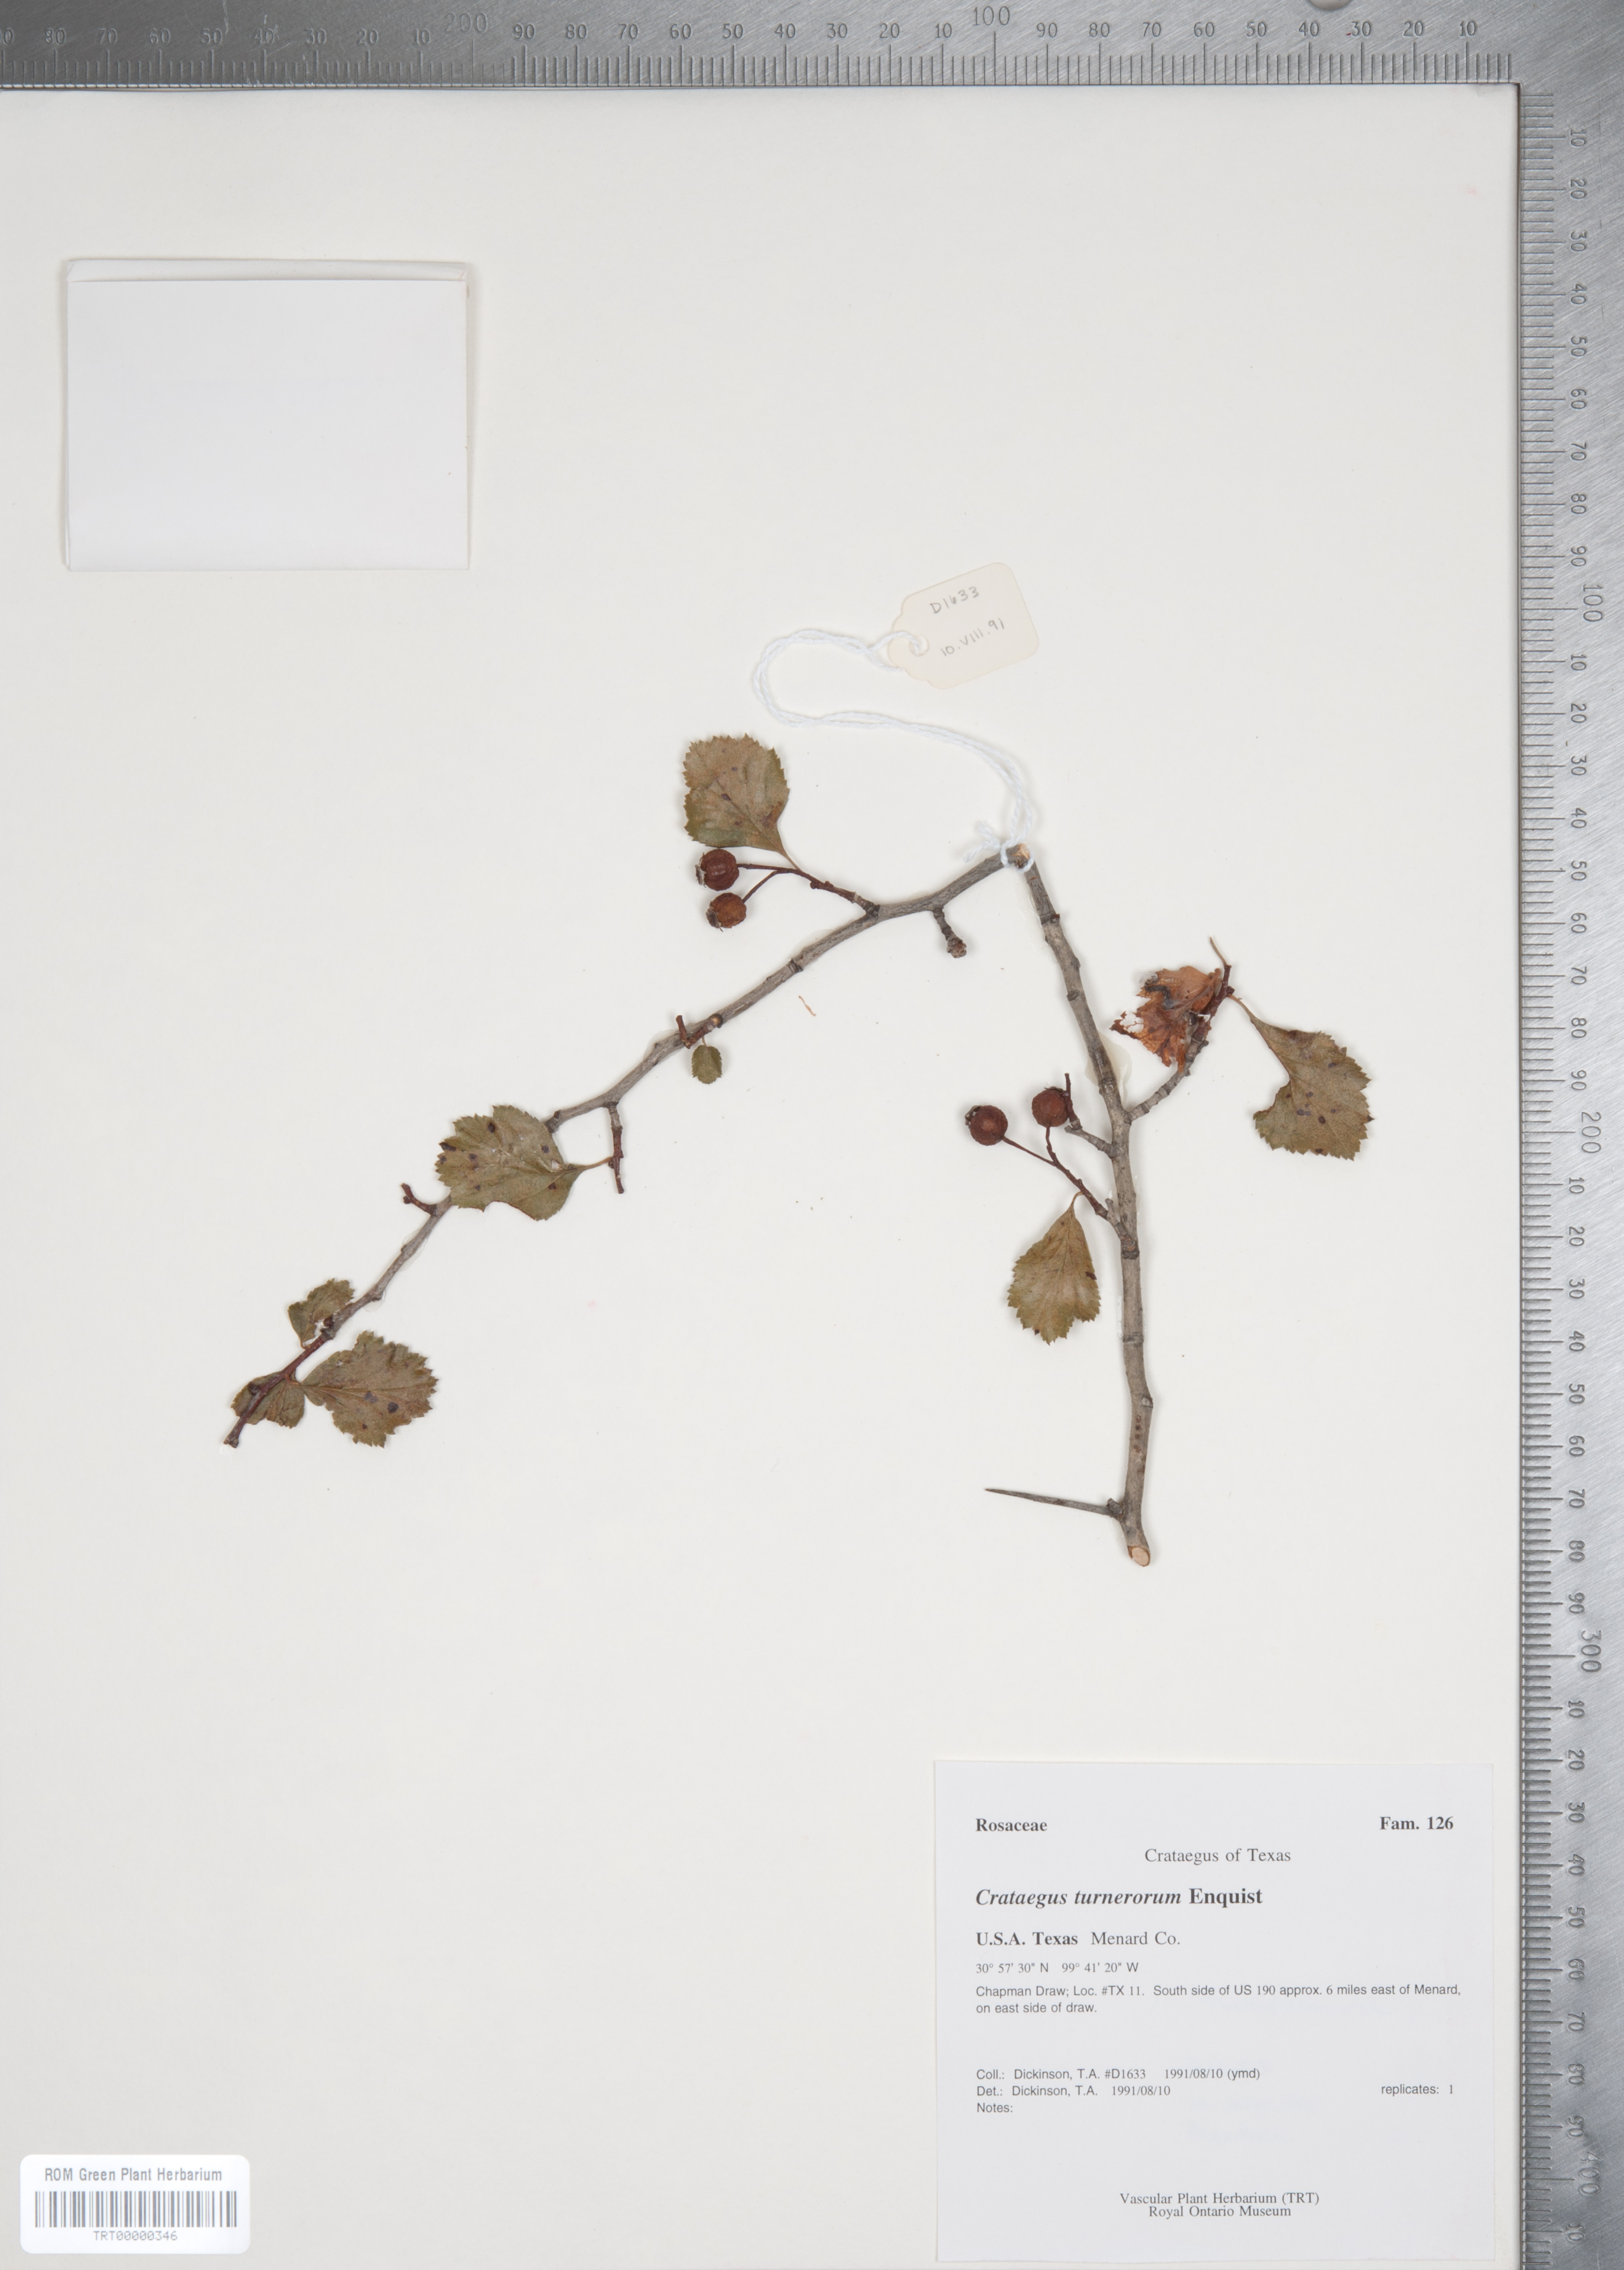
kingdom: Plantae
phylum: Tracheophyta
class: Magnoliopsida
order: Rosales
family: Rosaceae
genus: Crataegus
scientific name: Crataegus turnerorum
